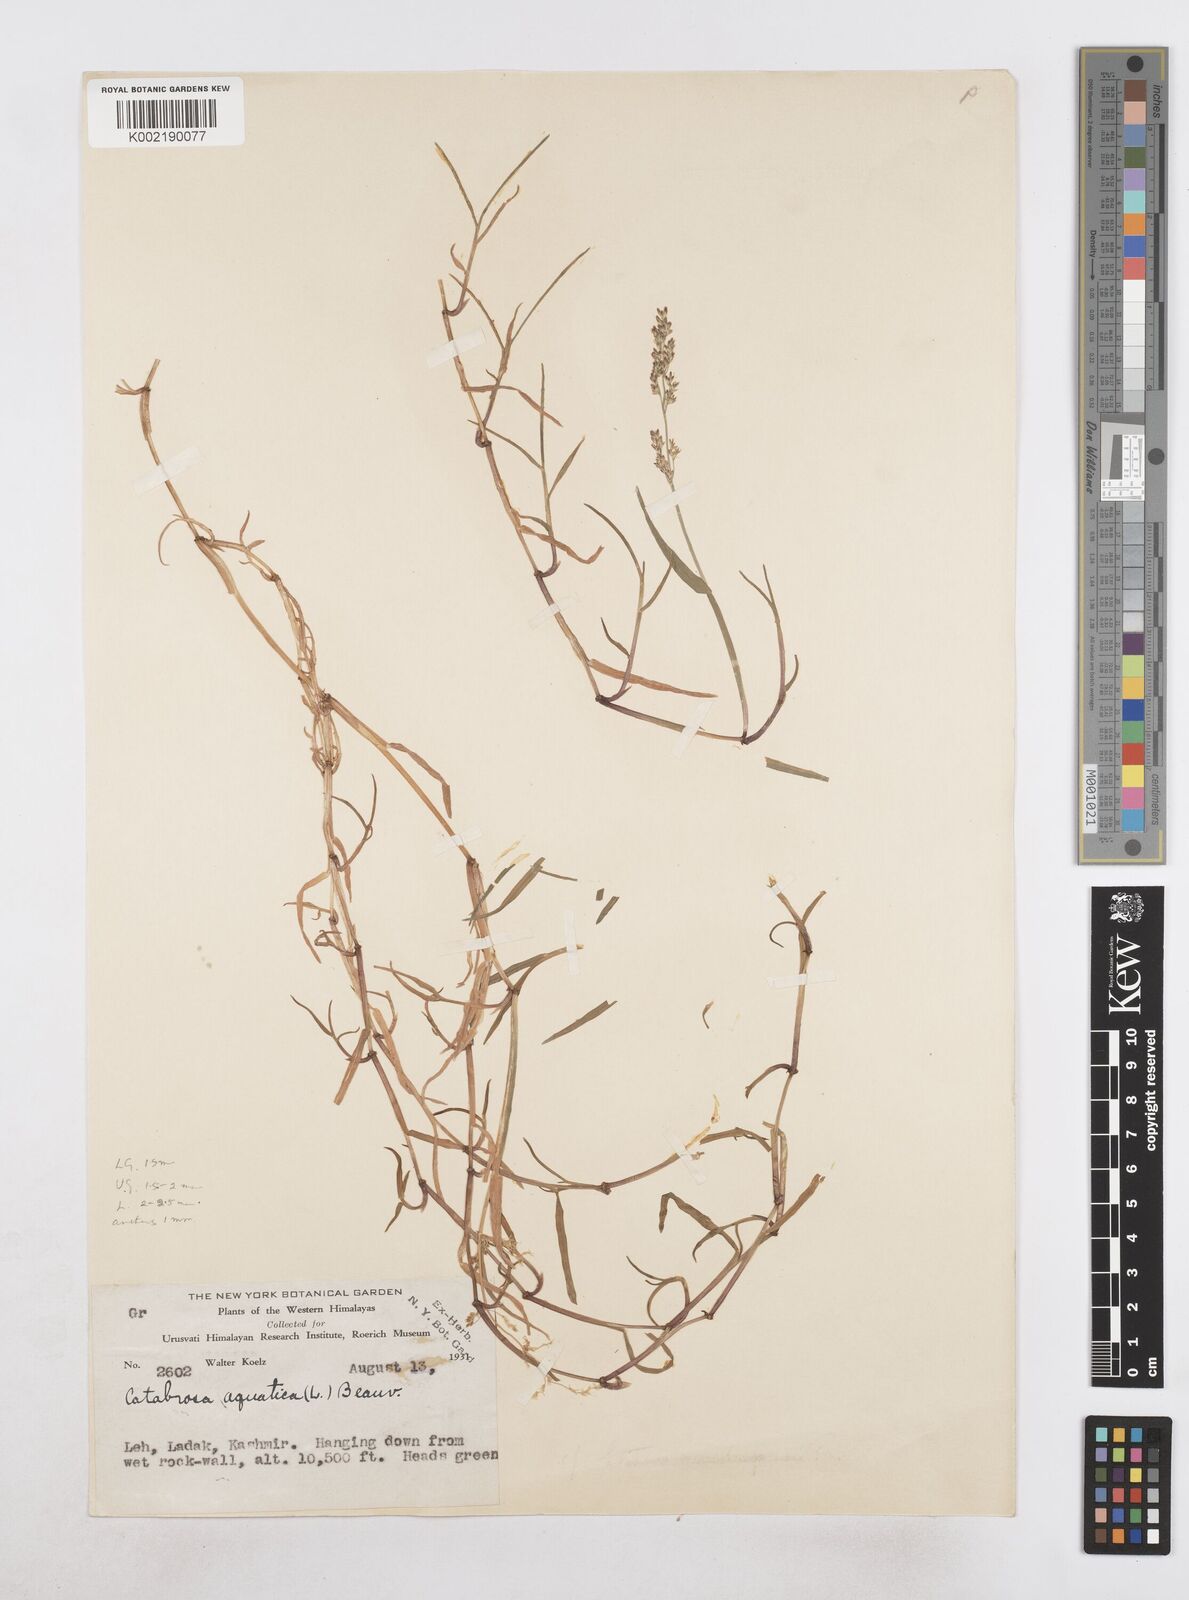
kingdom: Plantae
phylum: Tracheophyta
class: Liliopsida
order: Poales
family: Poaceae
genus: Catabrosa
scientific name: Catabrosa aquatica
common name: Whorl-grass
